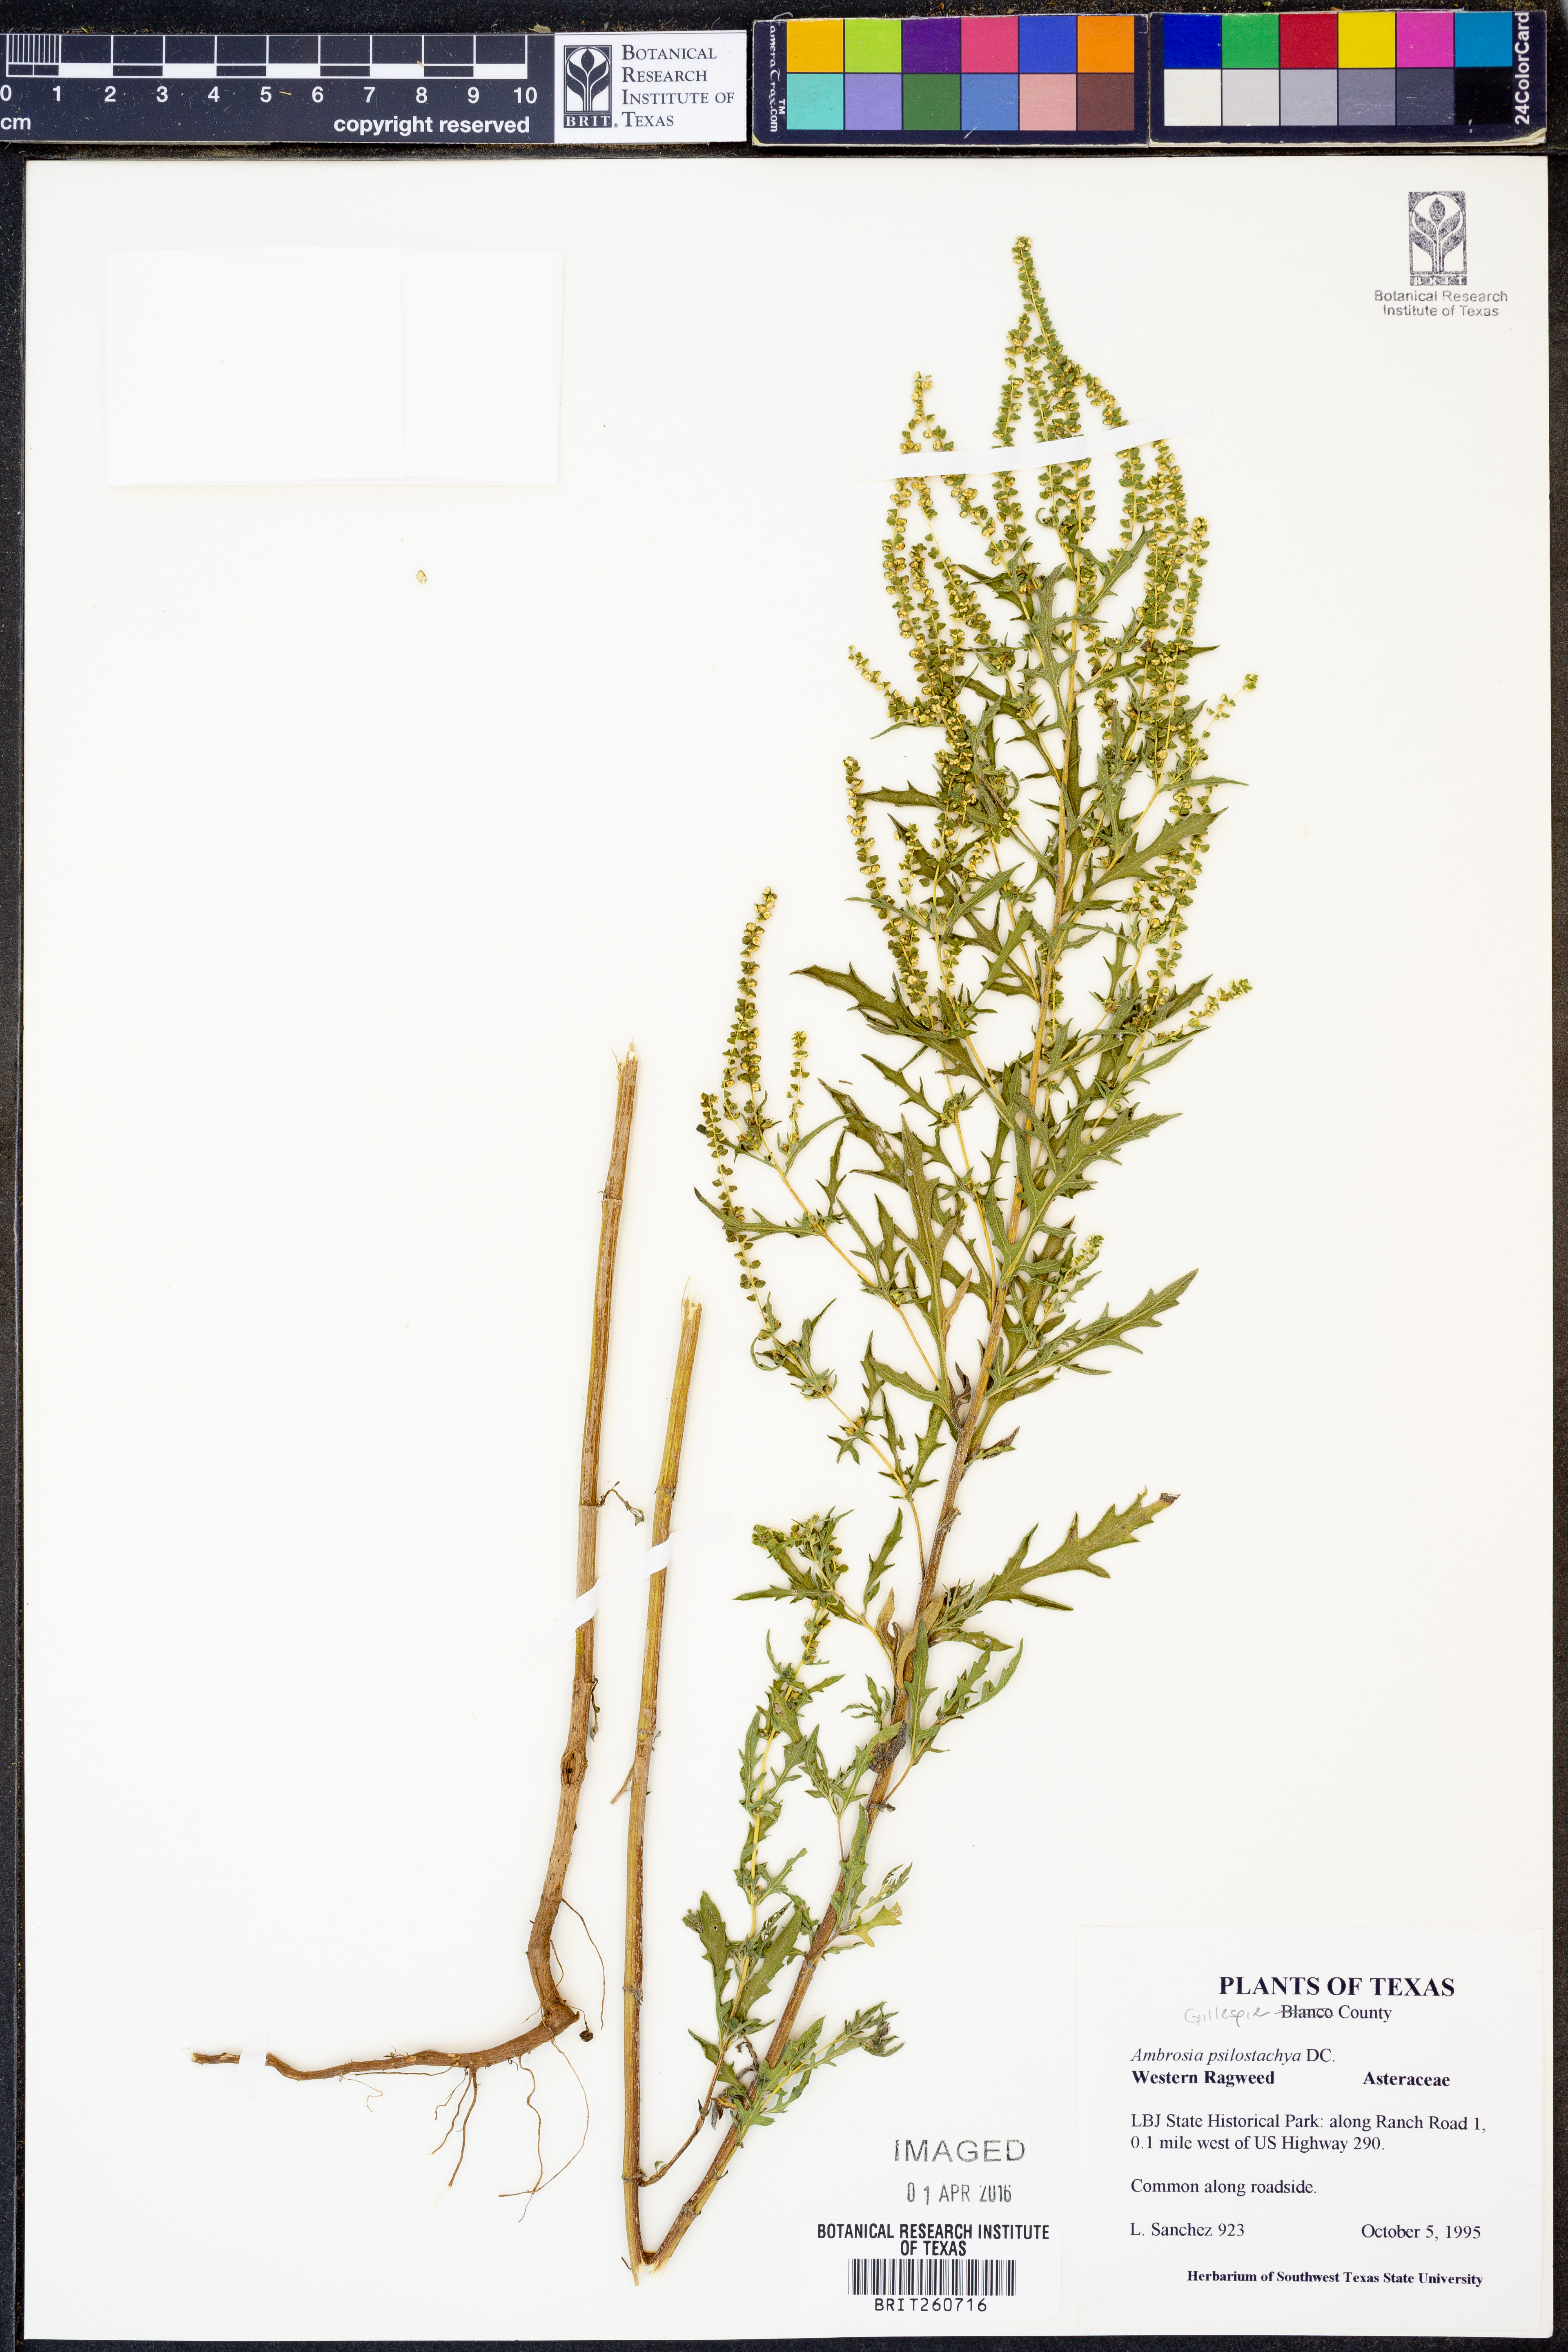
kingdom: Plantae
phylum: Tracheophyta
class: Magnoliopsida
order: Asterales
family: Asteraceae
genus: Ambrosia
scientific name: Ambrosia psilostachya
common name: Perennial ragweed
